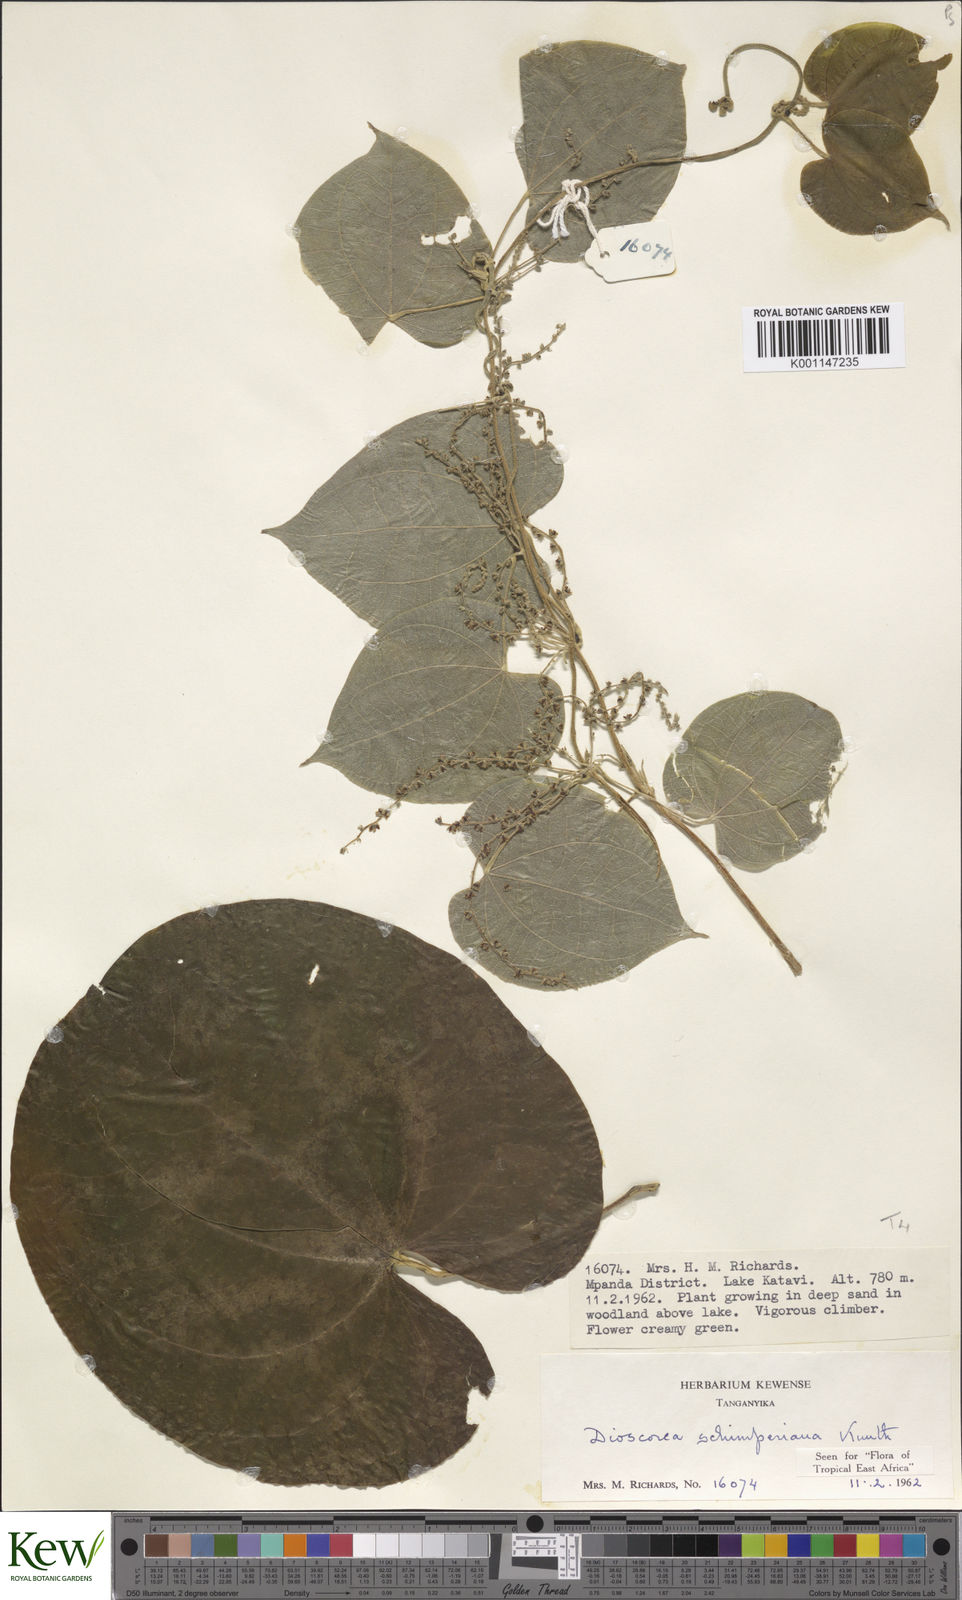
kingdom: Plantae
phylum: Tracheophyta
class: Liliopsida
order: Dioscoreales
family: Dioscoreaceae
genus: Dioscorea
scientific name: Dioscorea schimperiana
